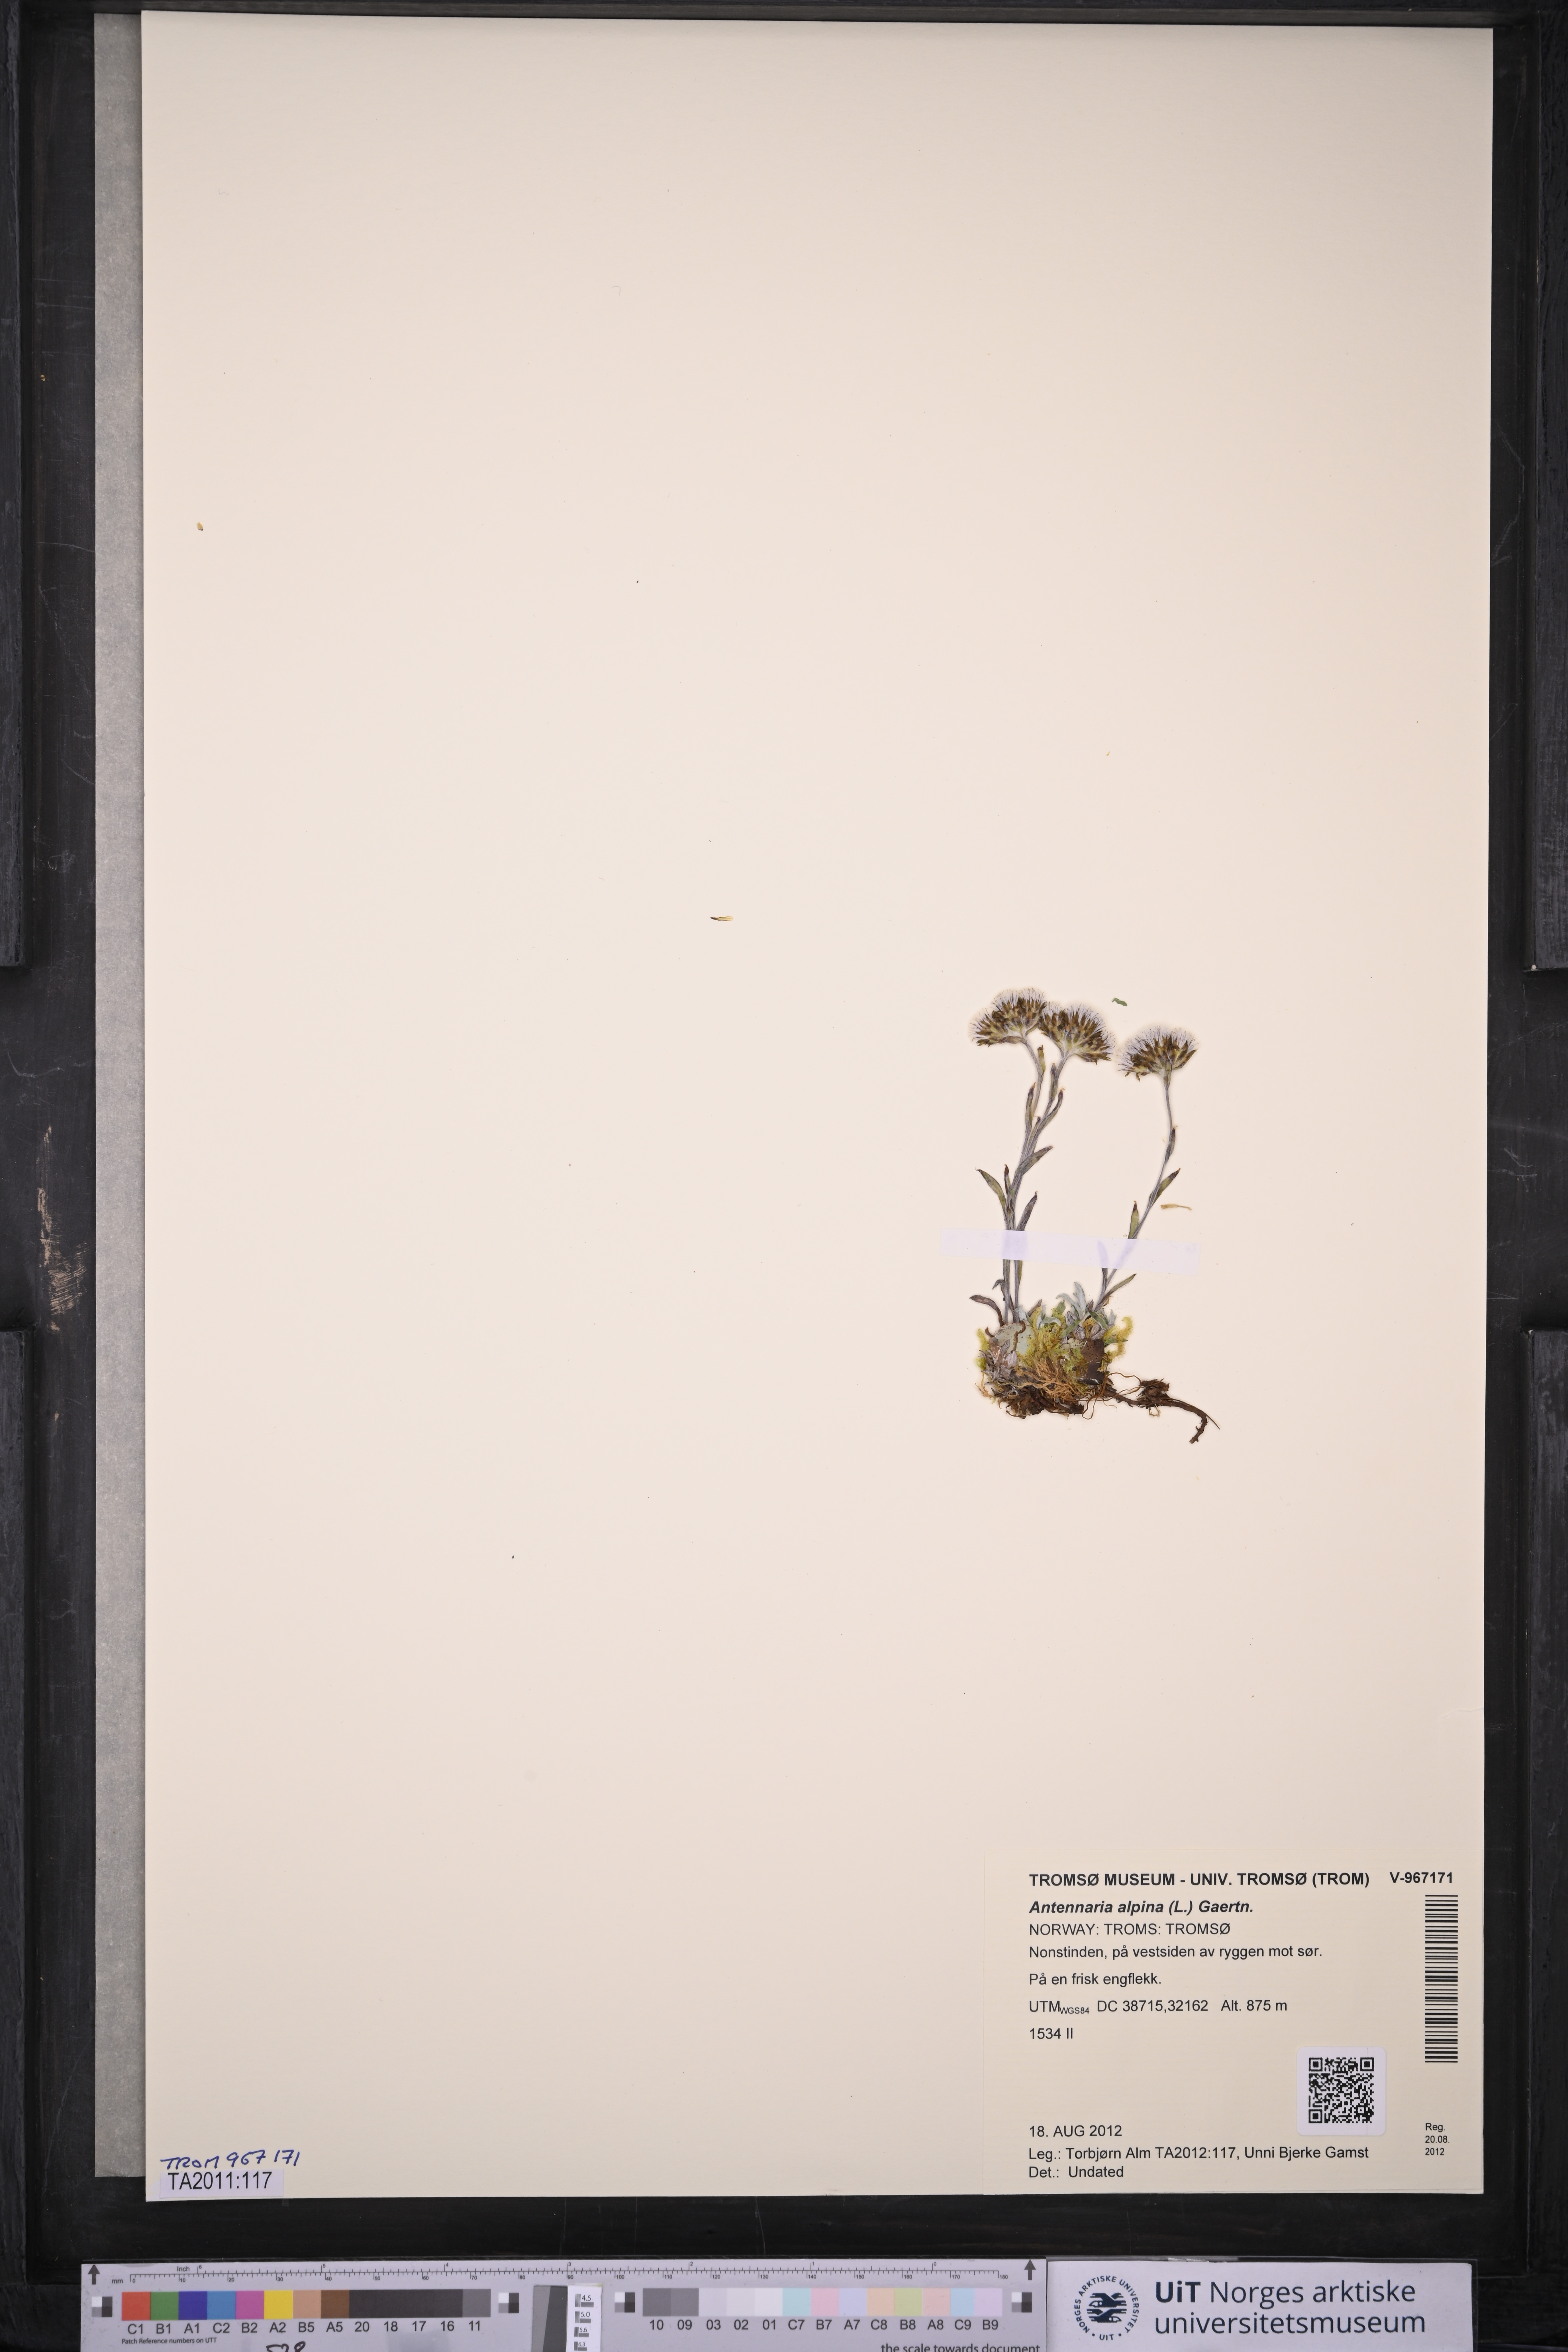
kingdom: Plantae
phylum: Tracheophyta
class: Magnoliopsida
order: Asterales
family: Asteraceae
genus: Antennaria
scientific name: Antennaria alpina
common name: Alpine pussytoes
